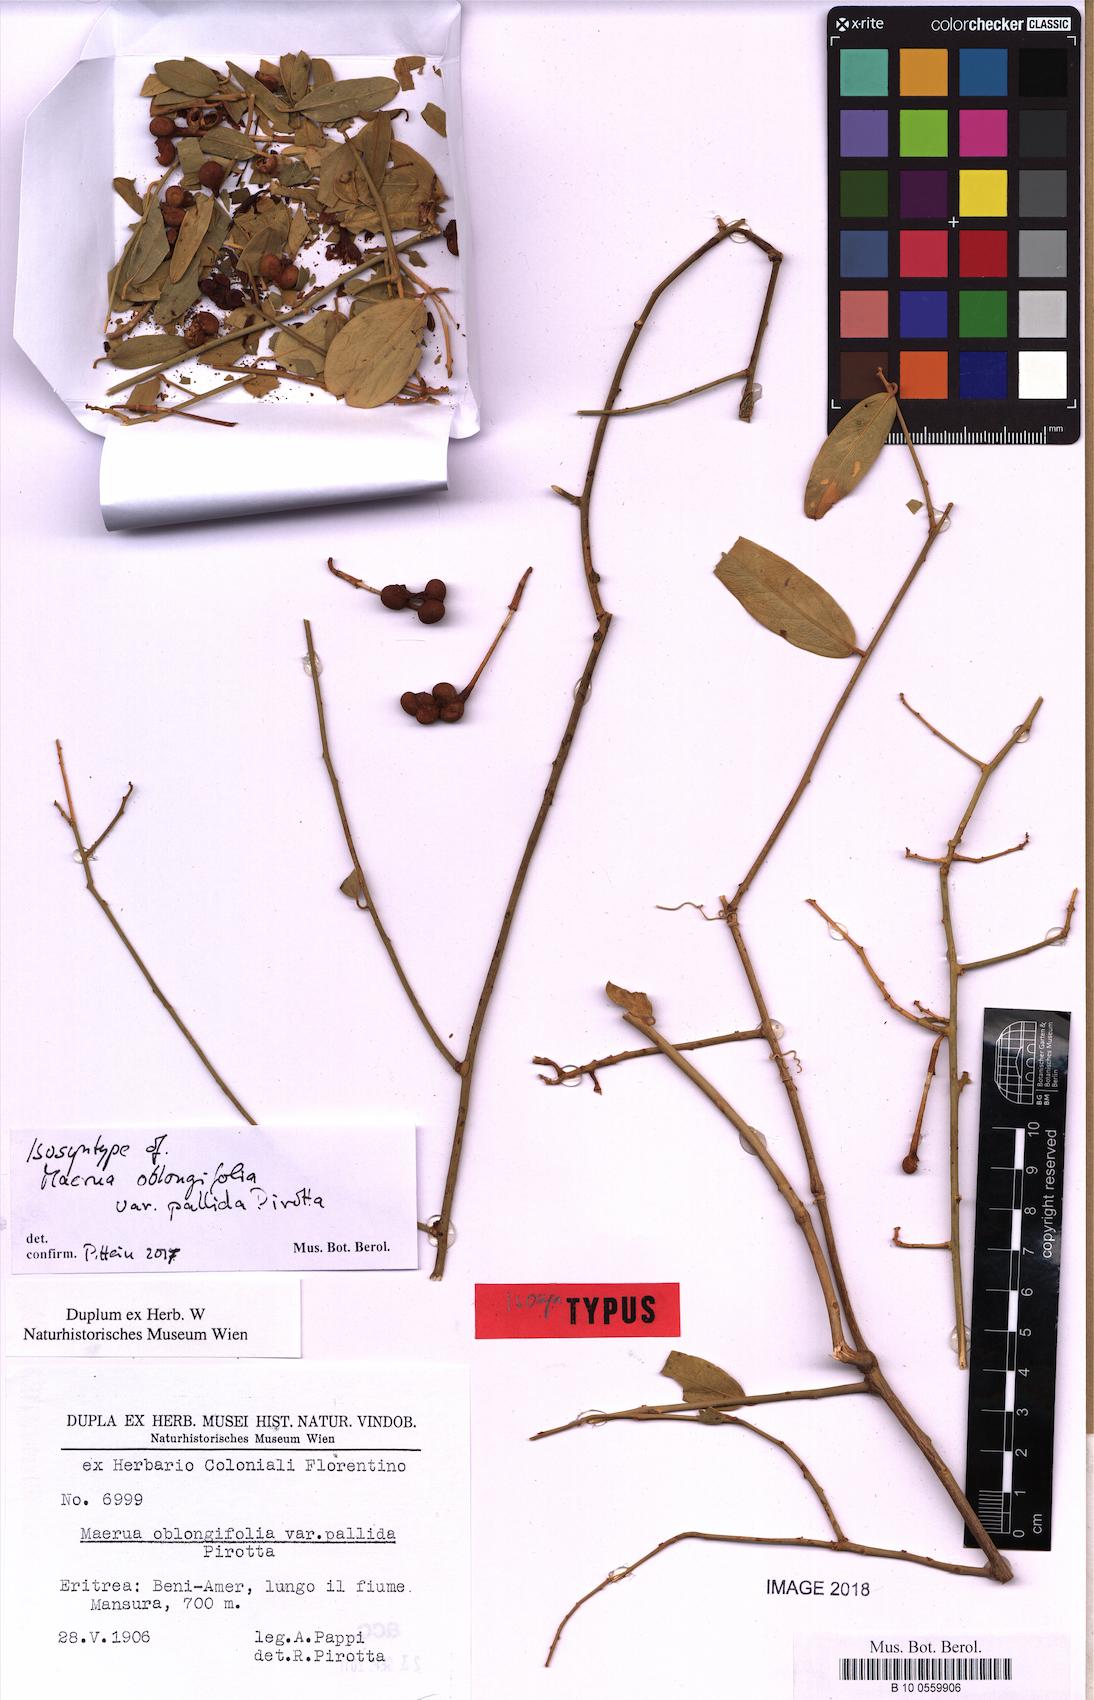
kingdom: Plantae
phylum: Tracheophyta
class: Magnoliopsida
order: Brassicales
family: Capparaceae
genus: Maerua
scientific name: Maerua oblongifolia
